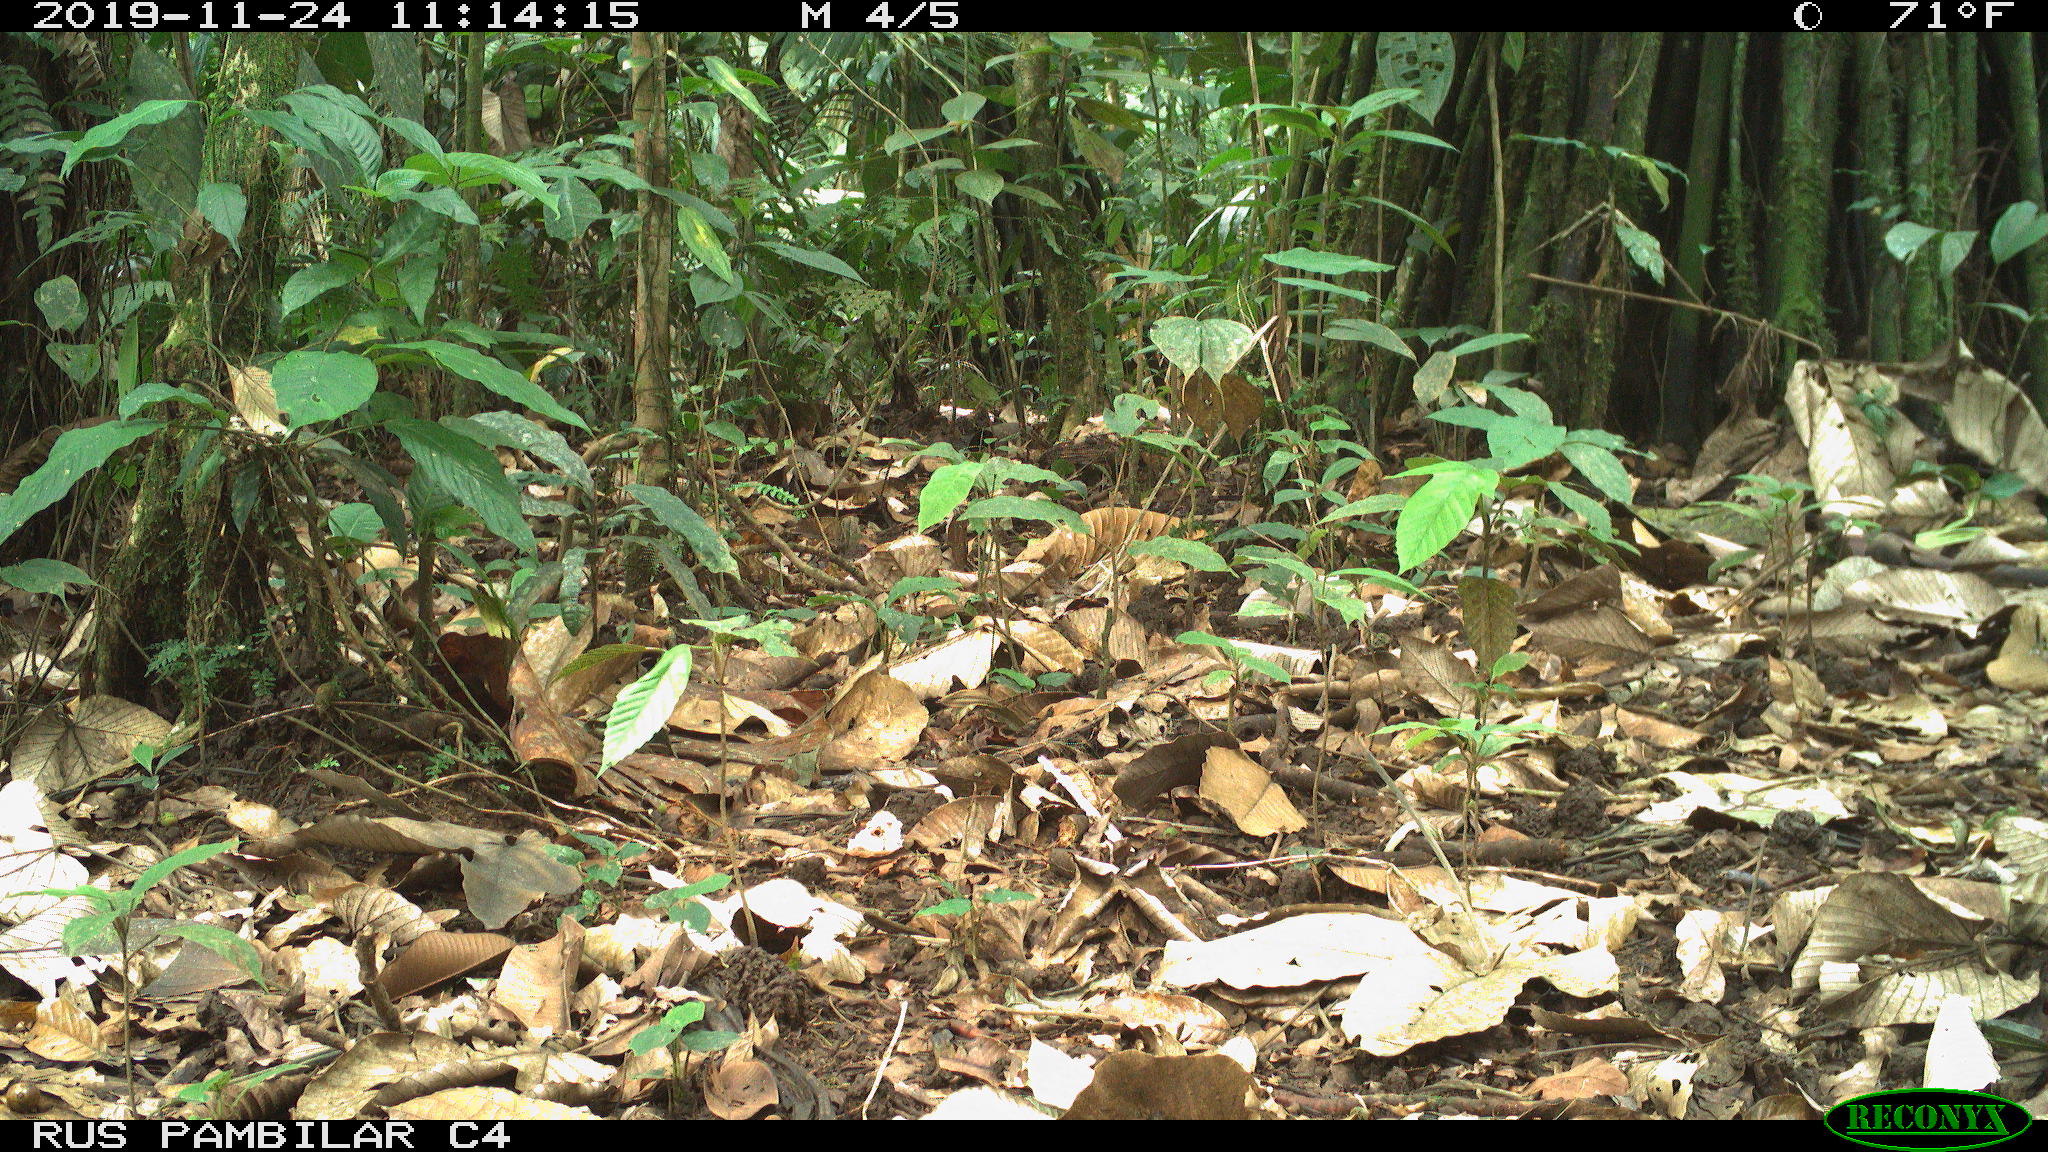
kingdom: Animalia
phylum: Chordata
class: Mammalia
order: Artiodactyla
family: Tayassuidae
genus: Tayassu
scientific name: Tayassu pecari
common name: White-lipped peccary
